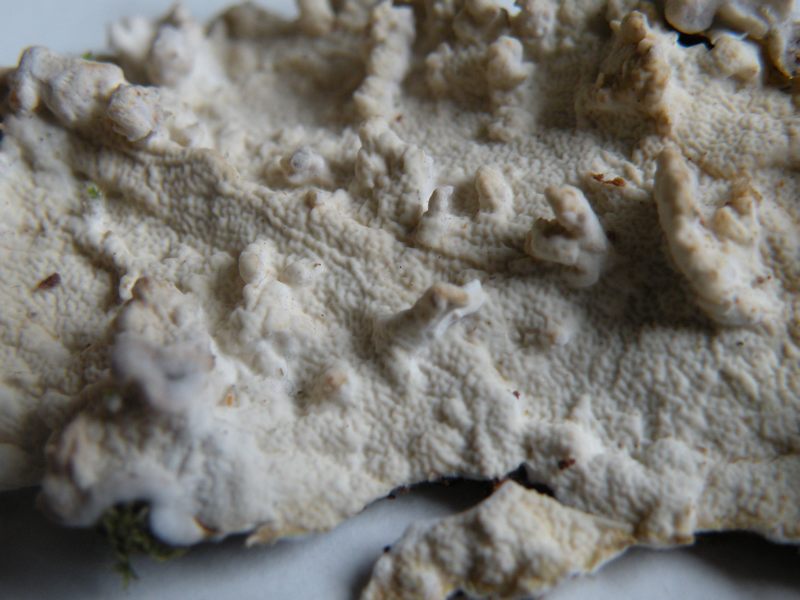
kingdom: Fungi
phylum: Basidiomycota
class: Agaricomycetes
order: Polyporales
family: Irpicaceae
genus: Byssomerulius
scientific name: Byssomerulius corium
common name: læder-åresvamp
